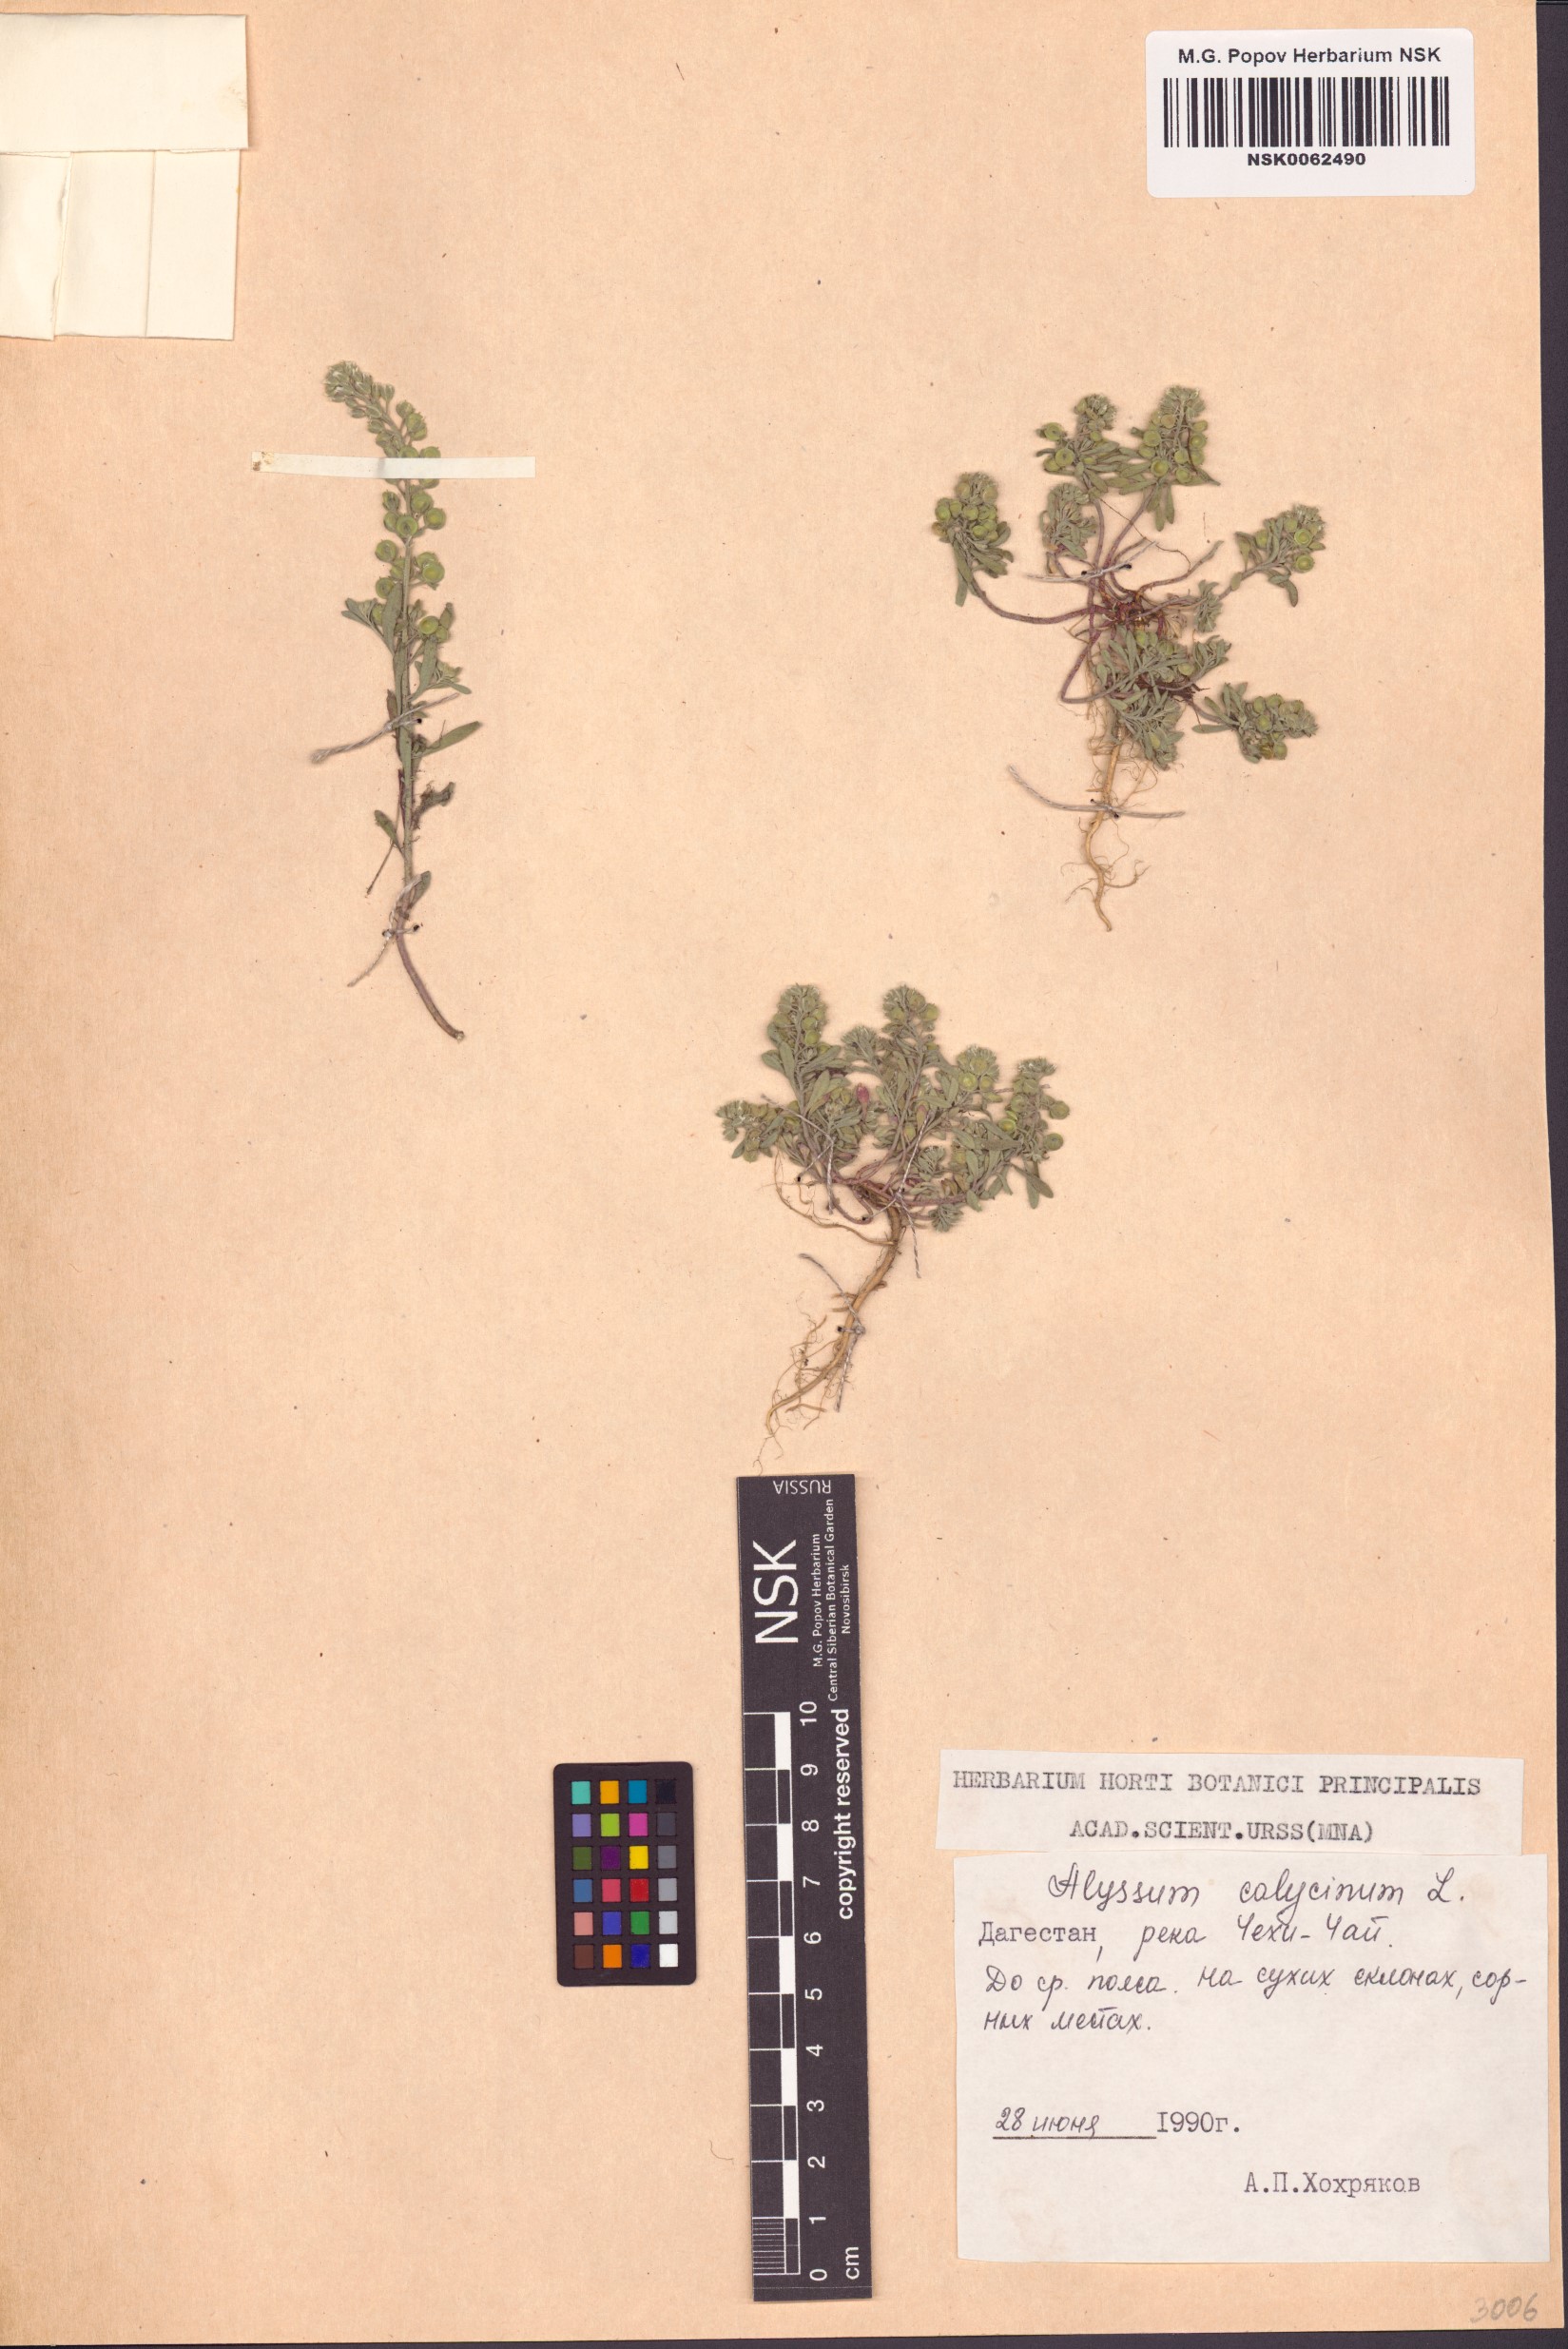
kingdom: Plantae
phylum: Tracheophyta
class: Magnoliopsida
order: Brassicales
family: Brassicaceae
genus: Alyssum
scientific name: Alyssum alyssoides
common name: Small alison
